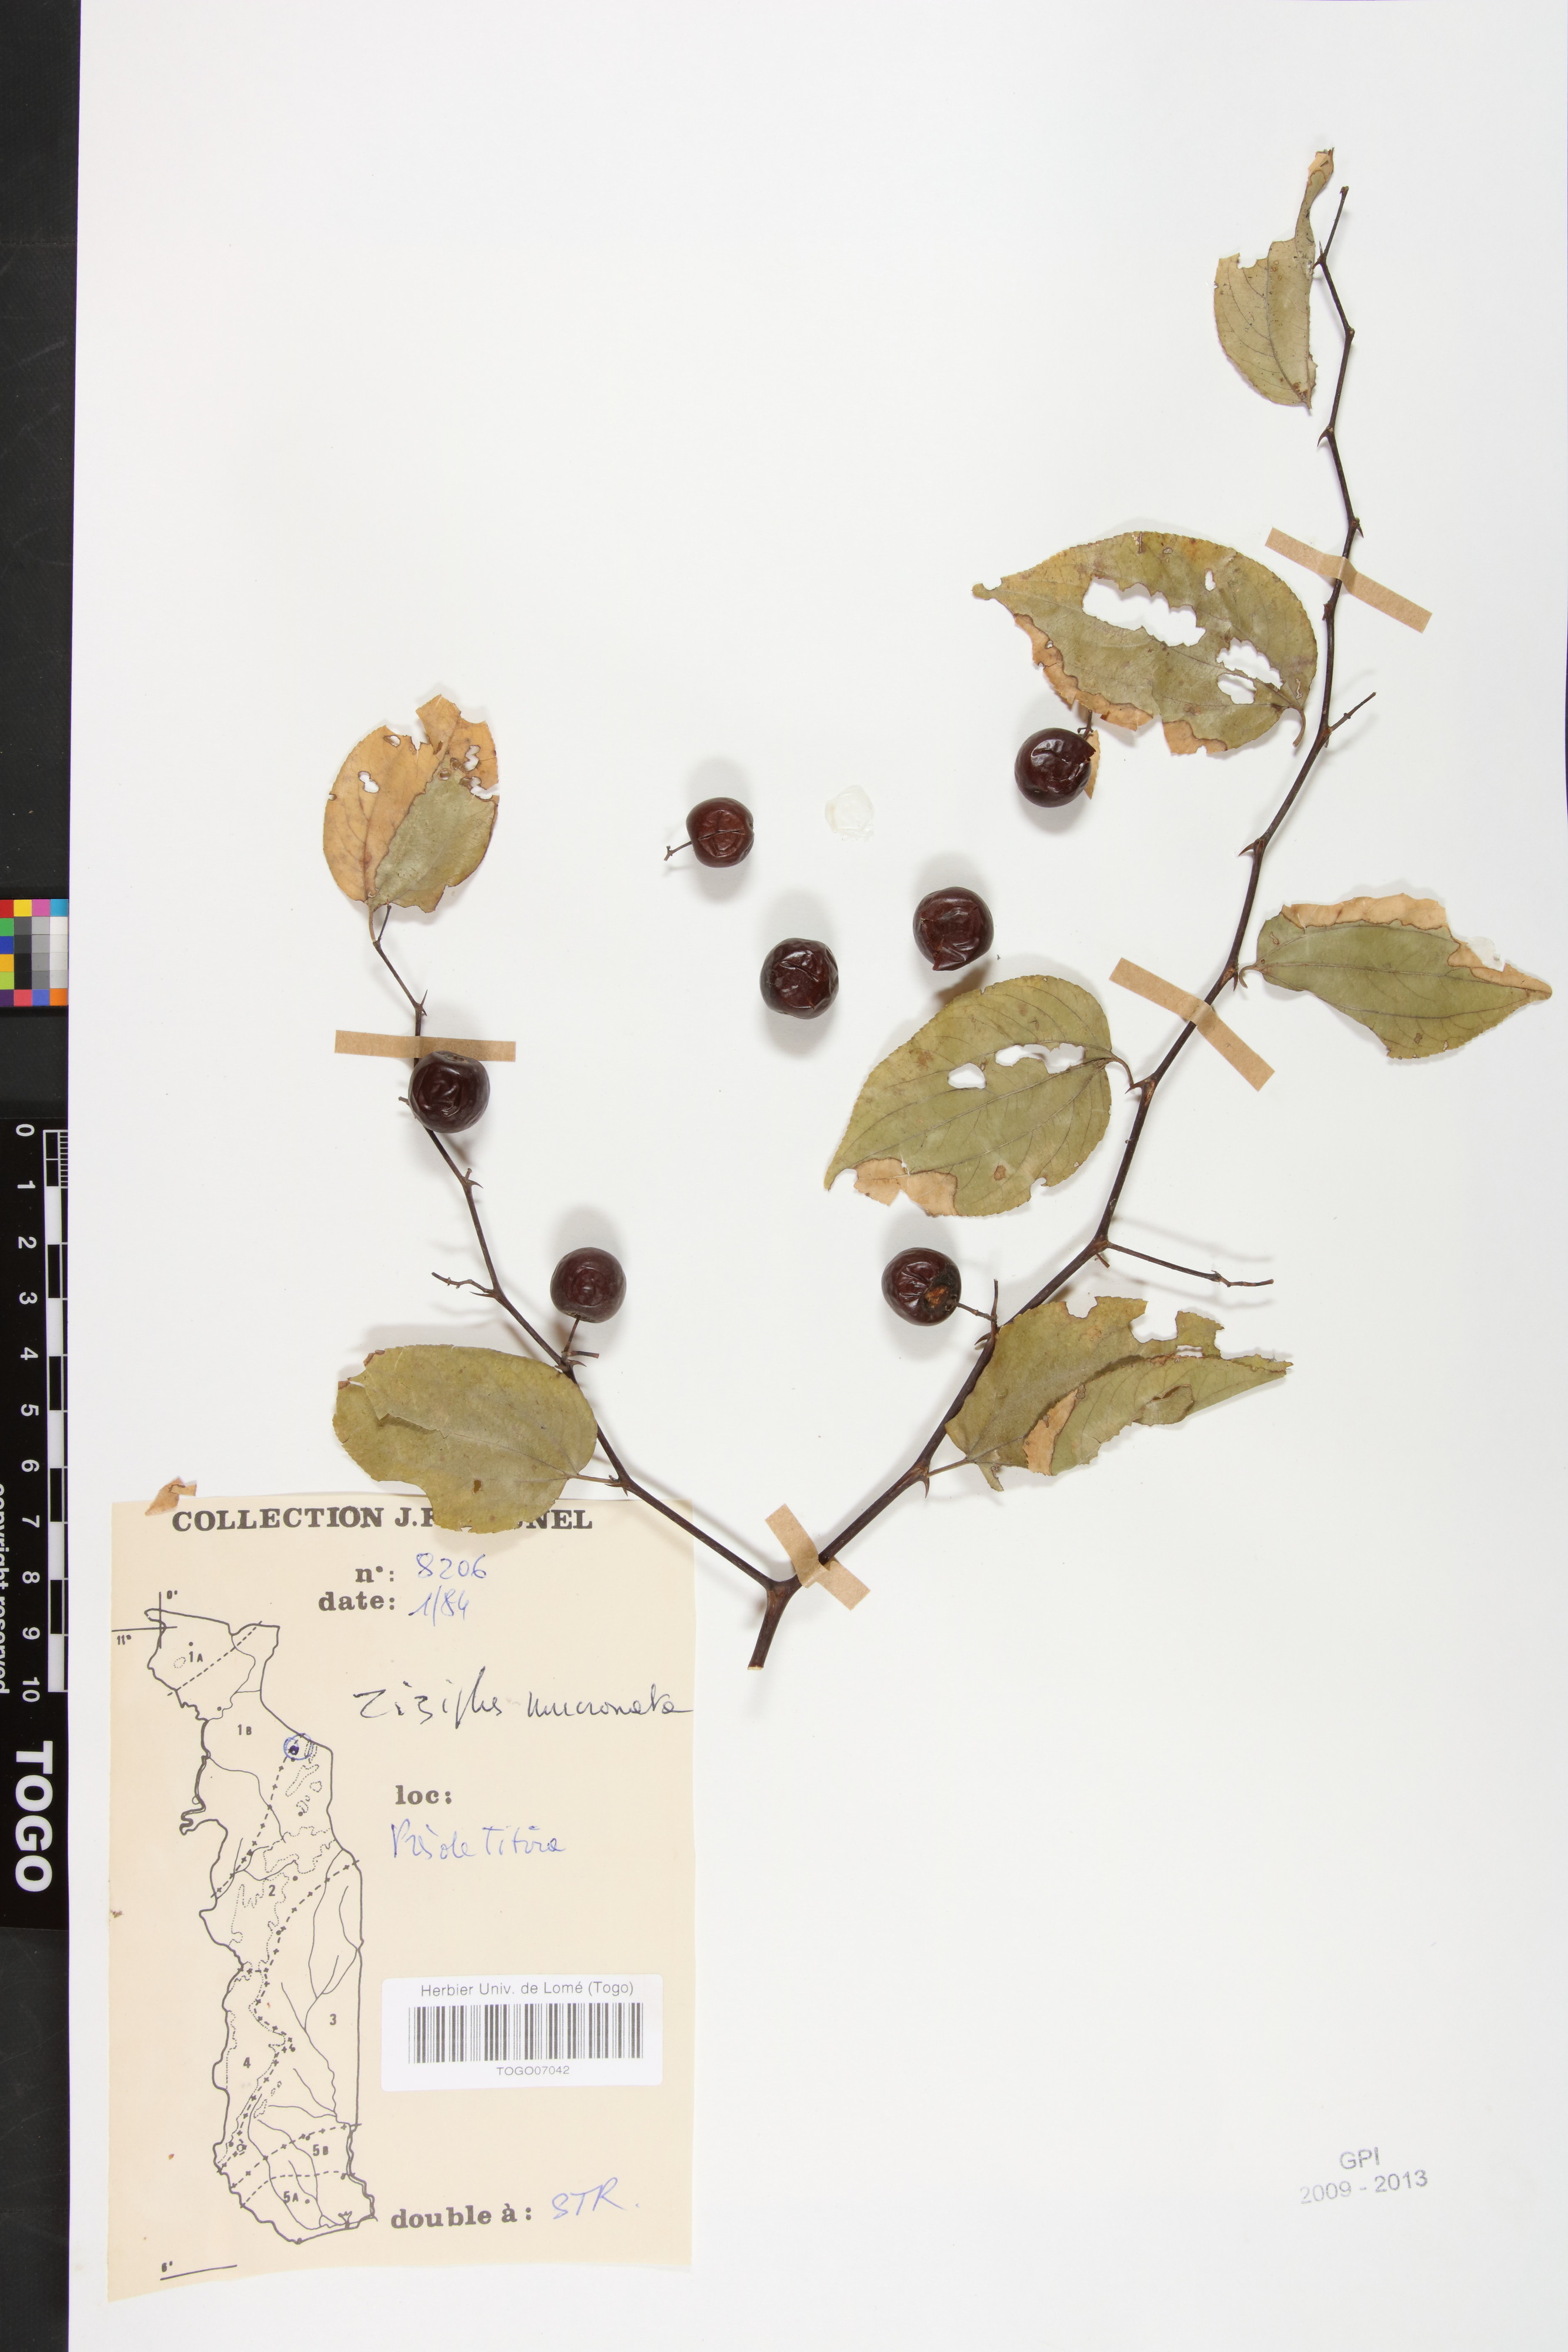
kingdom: Plantae
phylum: Tracheophyta
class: Magnoliopsida
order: Rosales
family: Rhamnaceae
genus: Ziziphus
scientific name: Ziziphus mucronata
